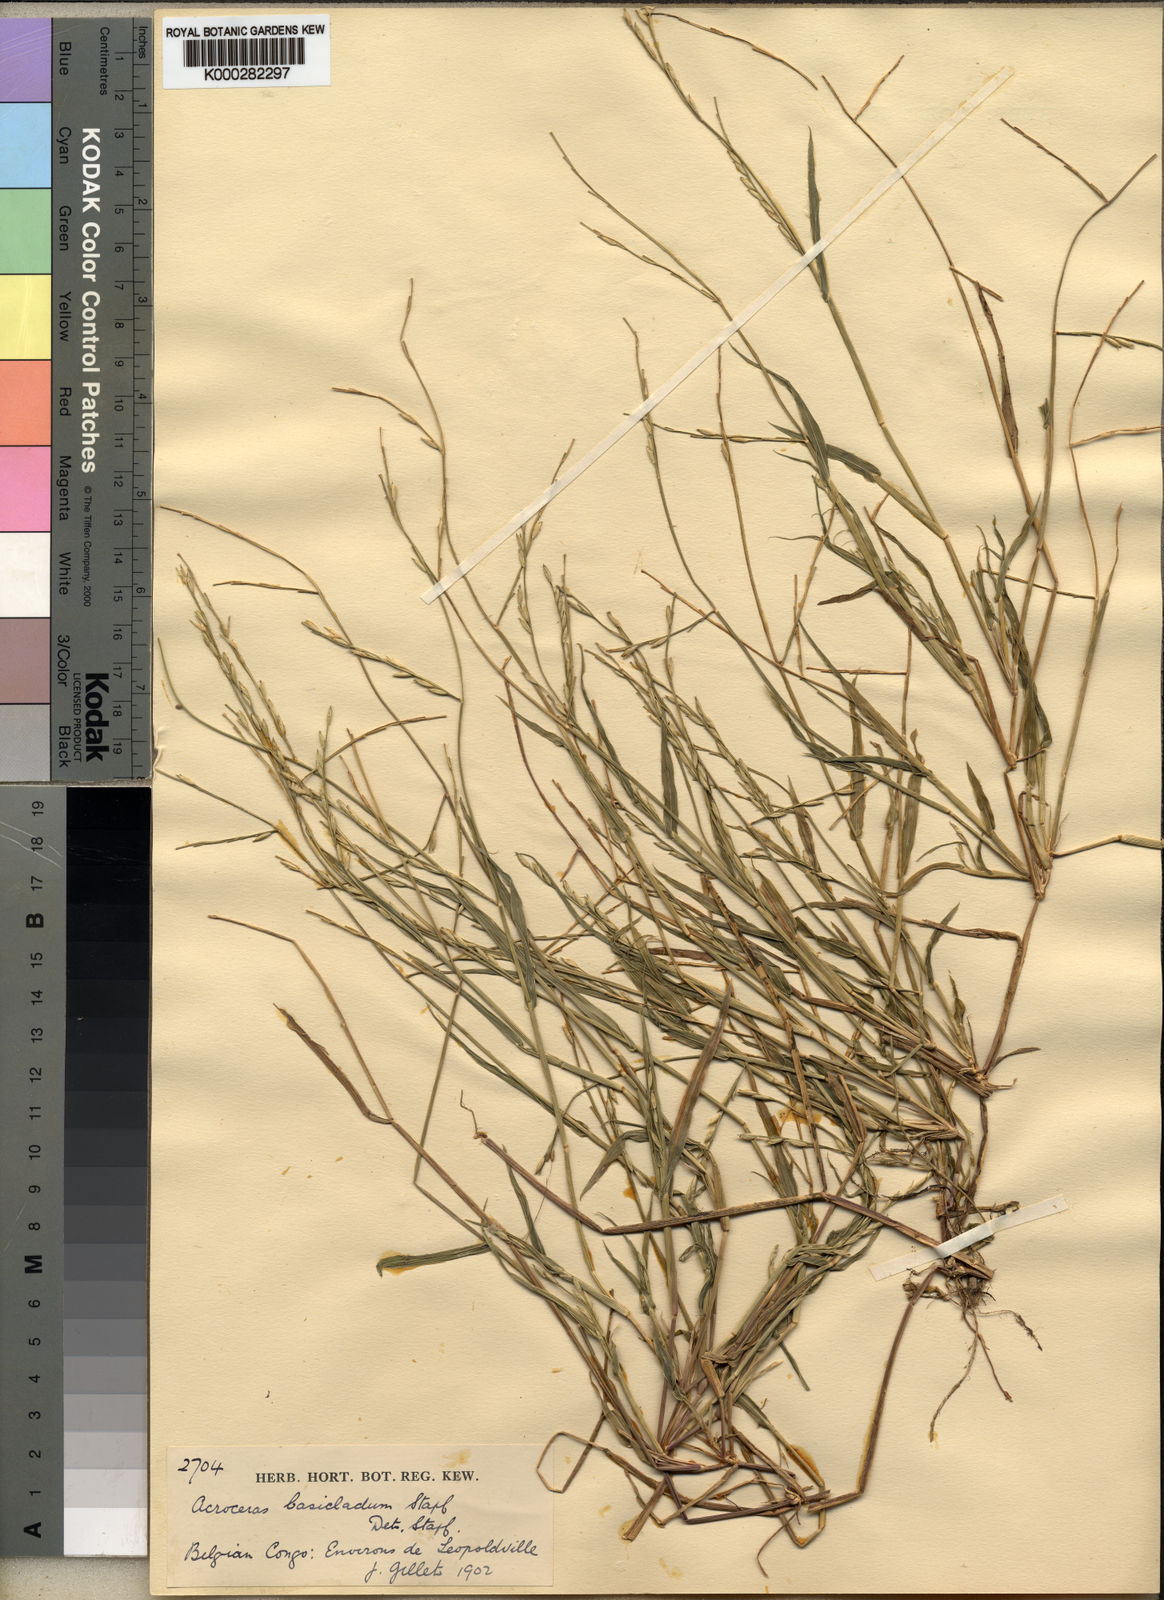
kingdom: Plantae
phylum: Tracheophyta
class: Liliopsida
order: Poales
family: Poaceae
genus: Acroceras
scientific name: Acroceras amplectens
